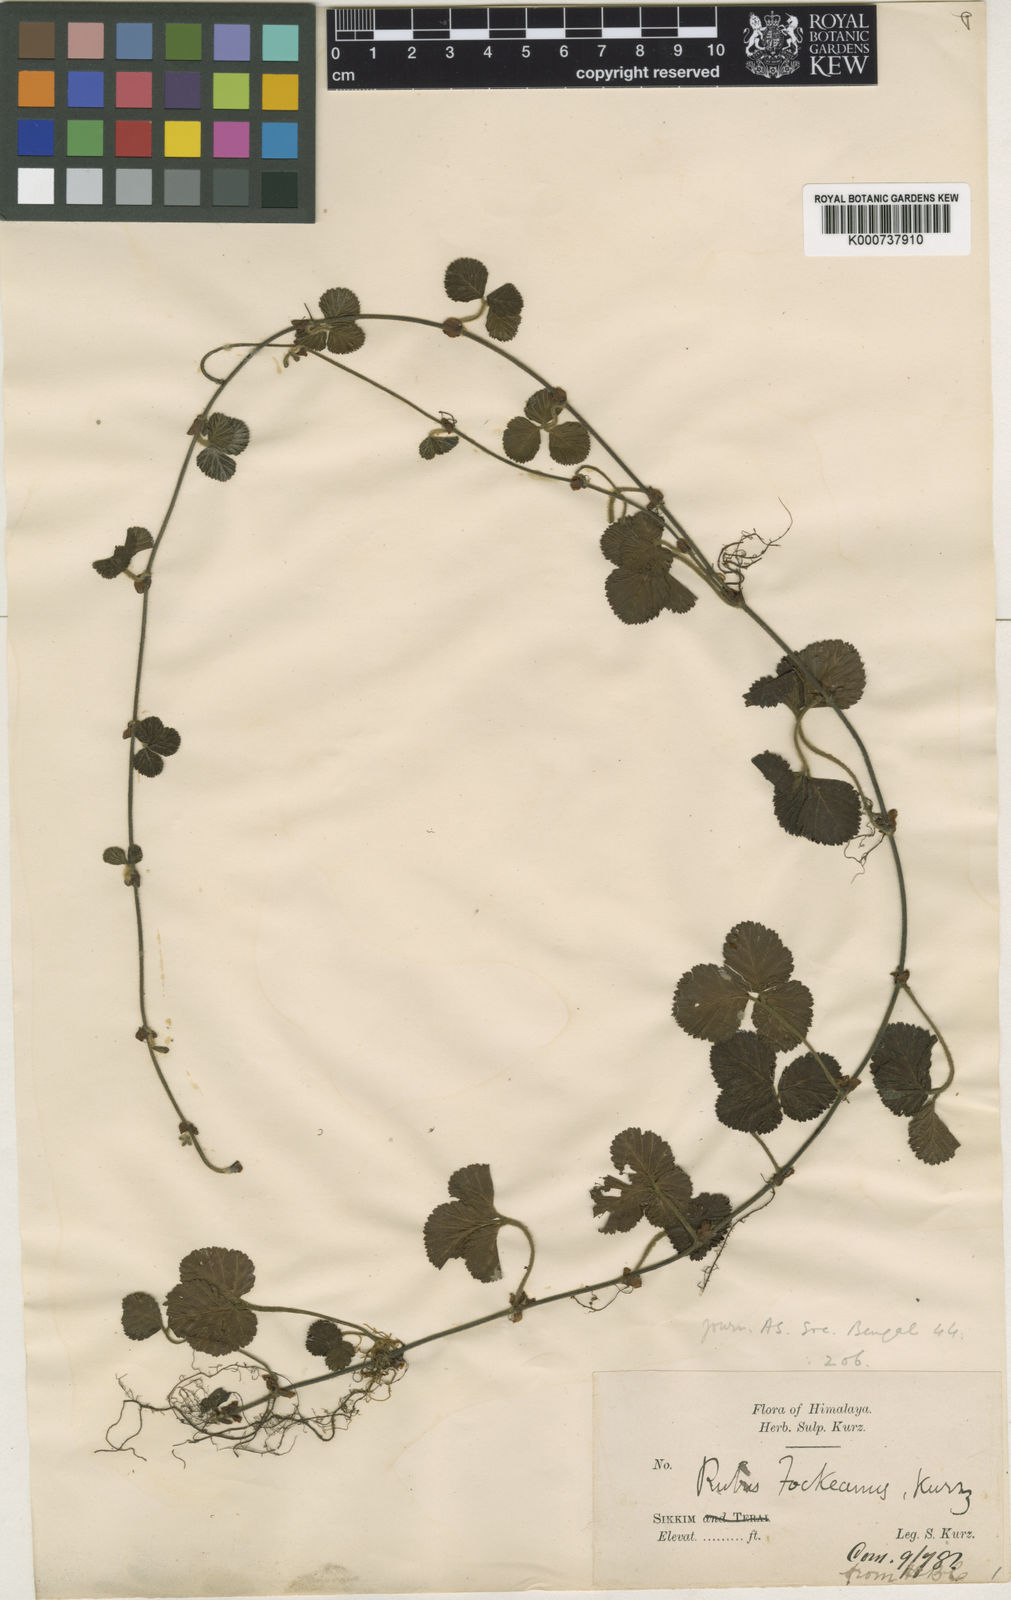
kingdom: Plantae
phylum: Tracheophyta
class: Magnoliopsida
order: Rosales
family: Rosaceae
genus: Rubus
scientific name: Rubus fockeanus
